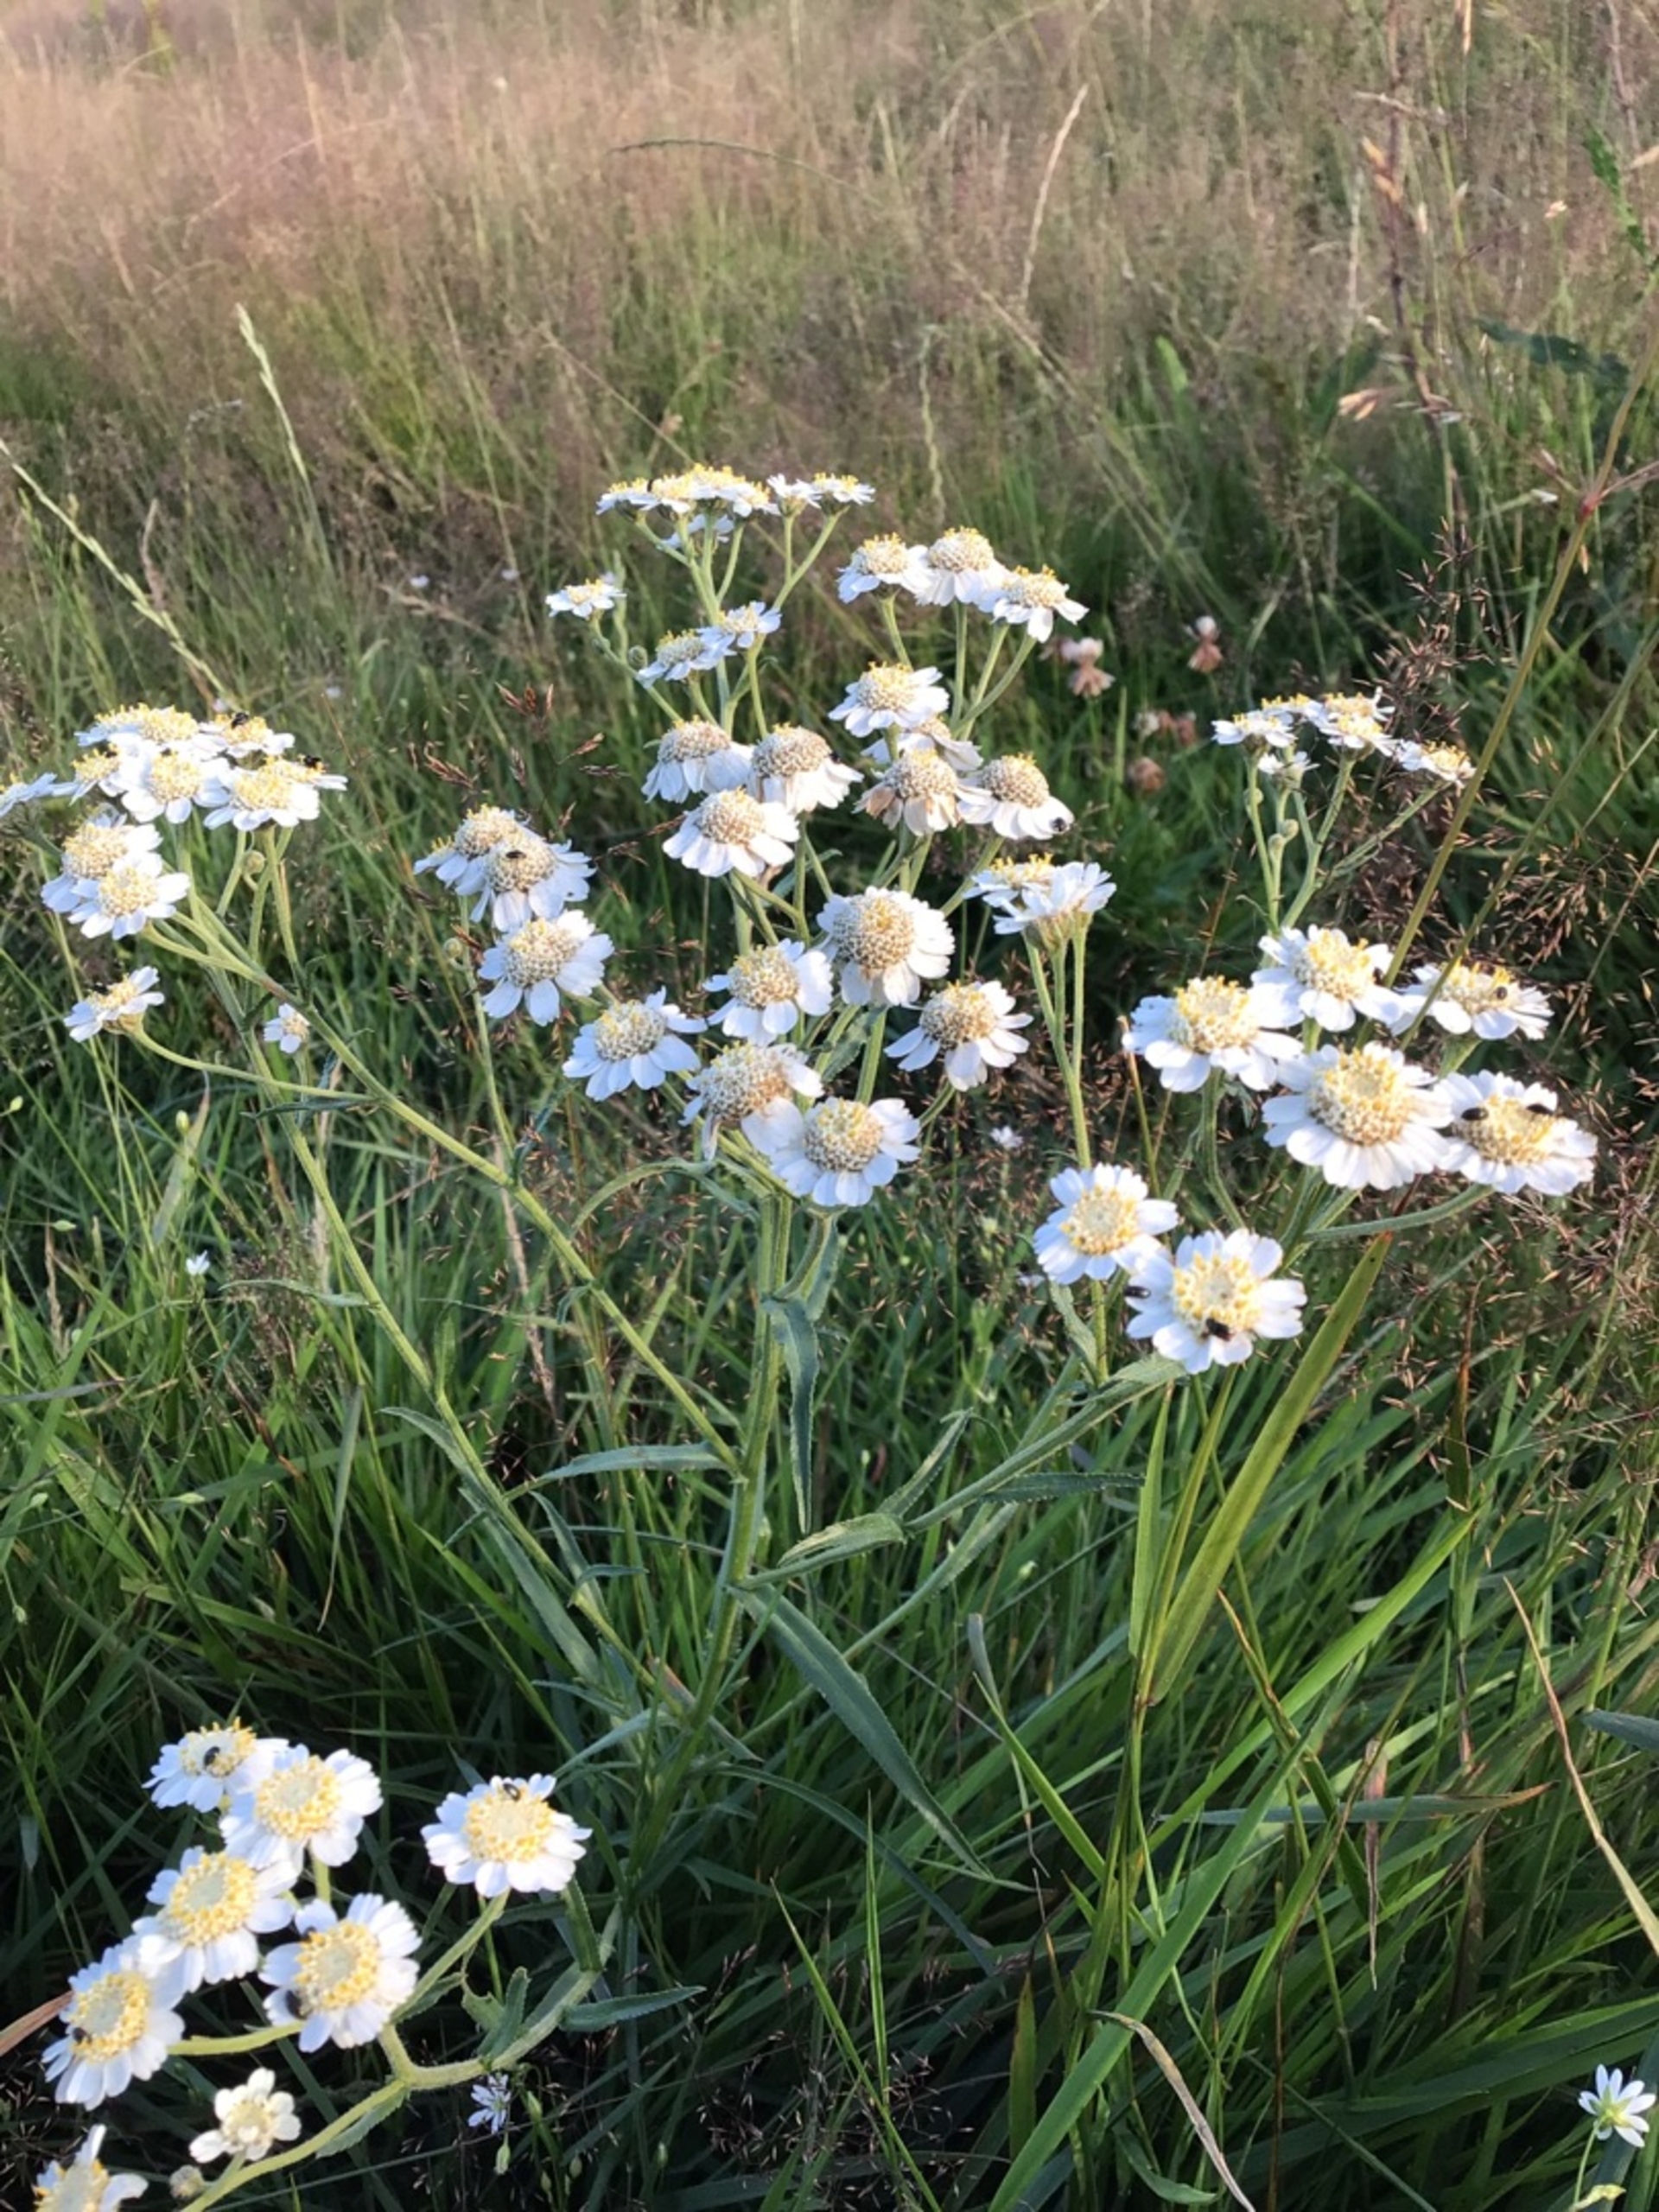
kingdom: Plantae
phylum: Tracheophyta
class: Magnoliopsida
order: Asterales
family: Asteraceae
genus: Achillea
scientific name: Achillea ptarmica
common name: Nyse-røllike
